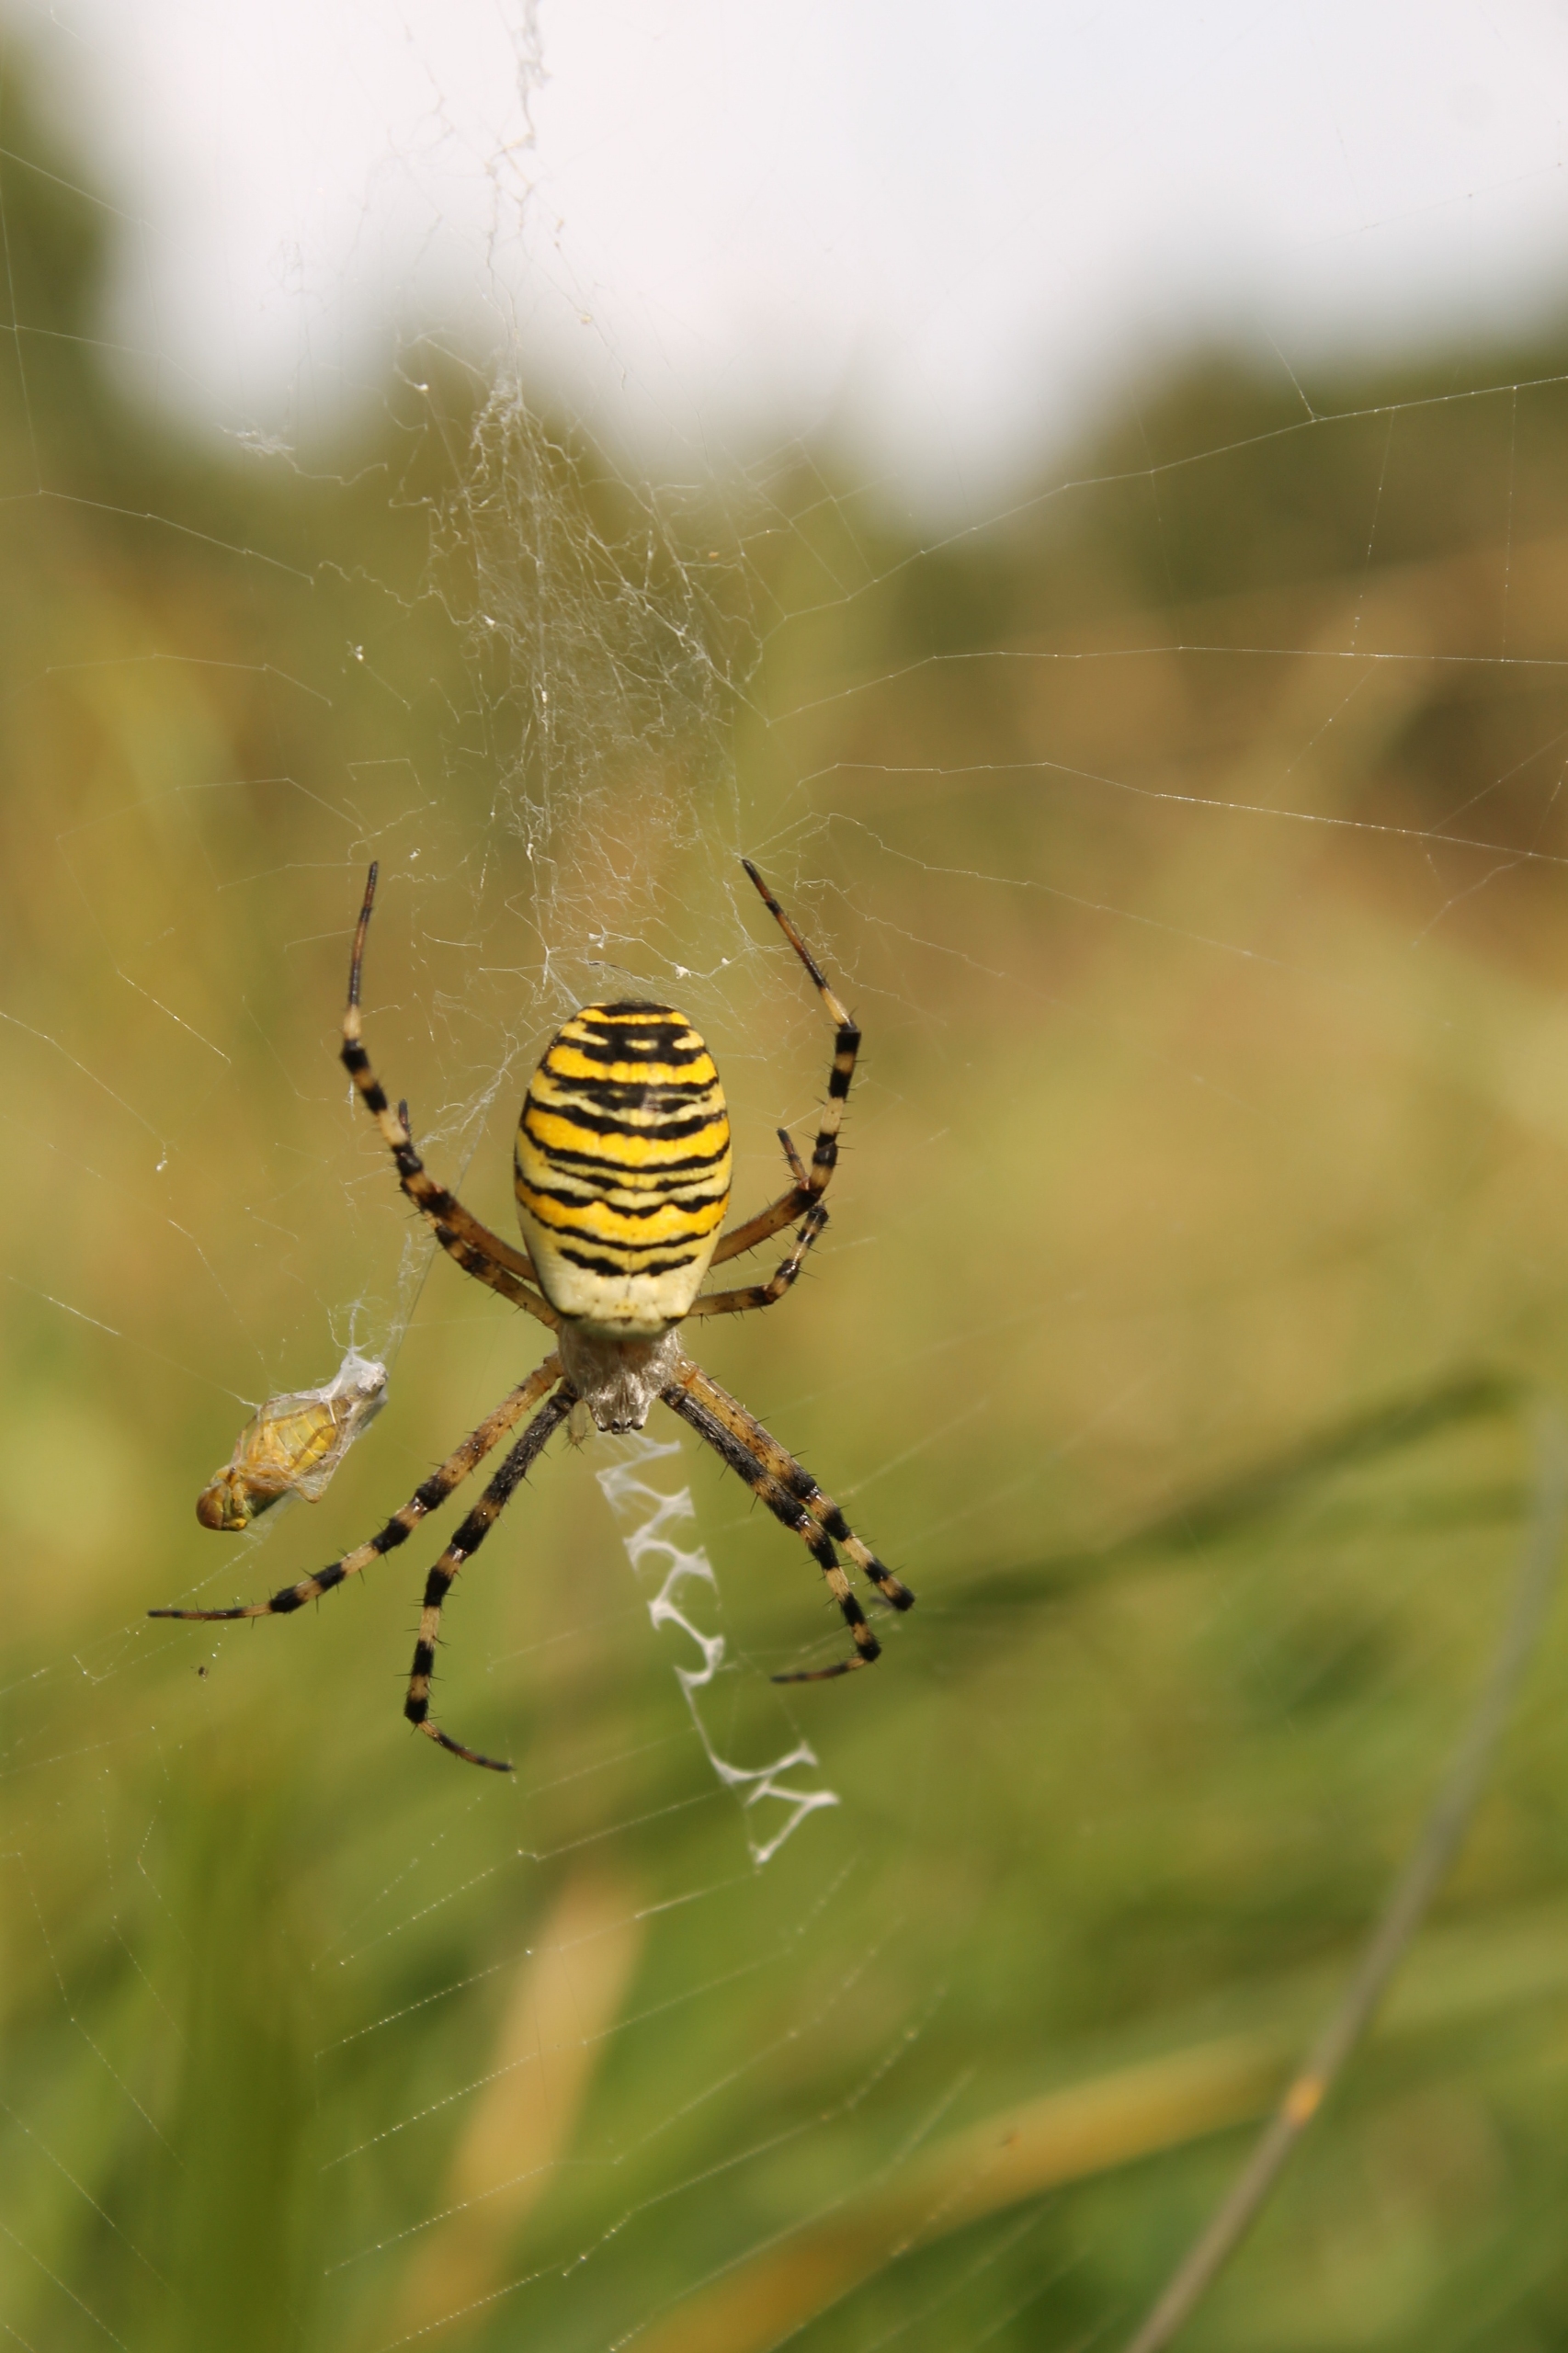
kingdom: Animalia
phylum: Arthropoda
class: Arachnida
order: Araneae
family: Araneidae
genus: Argiope
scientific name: Argiope bruennichi
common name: Hvepseedderkop
